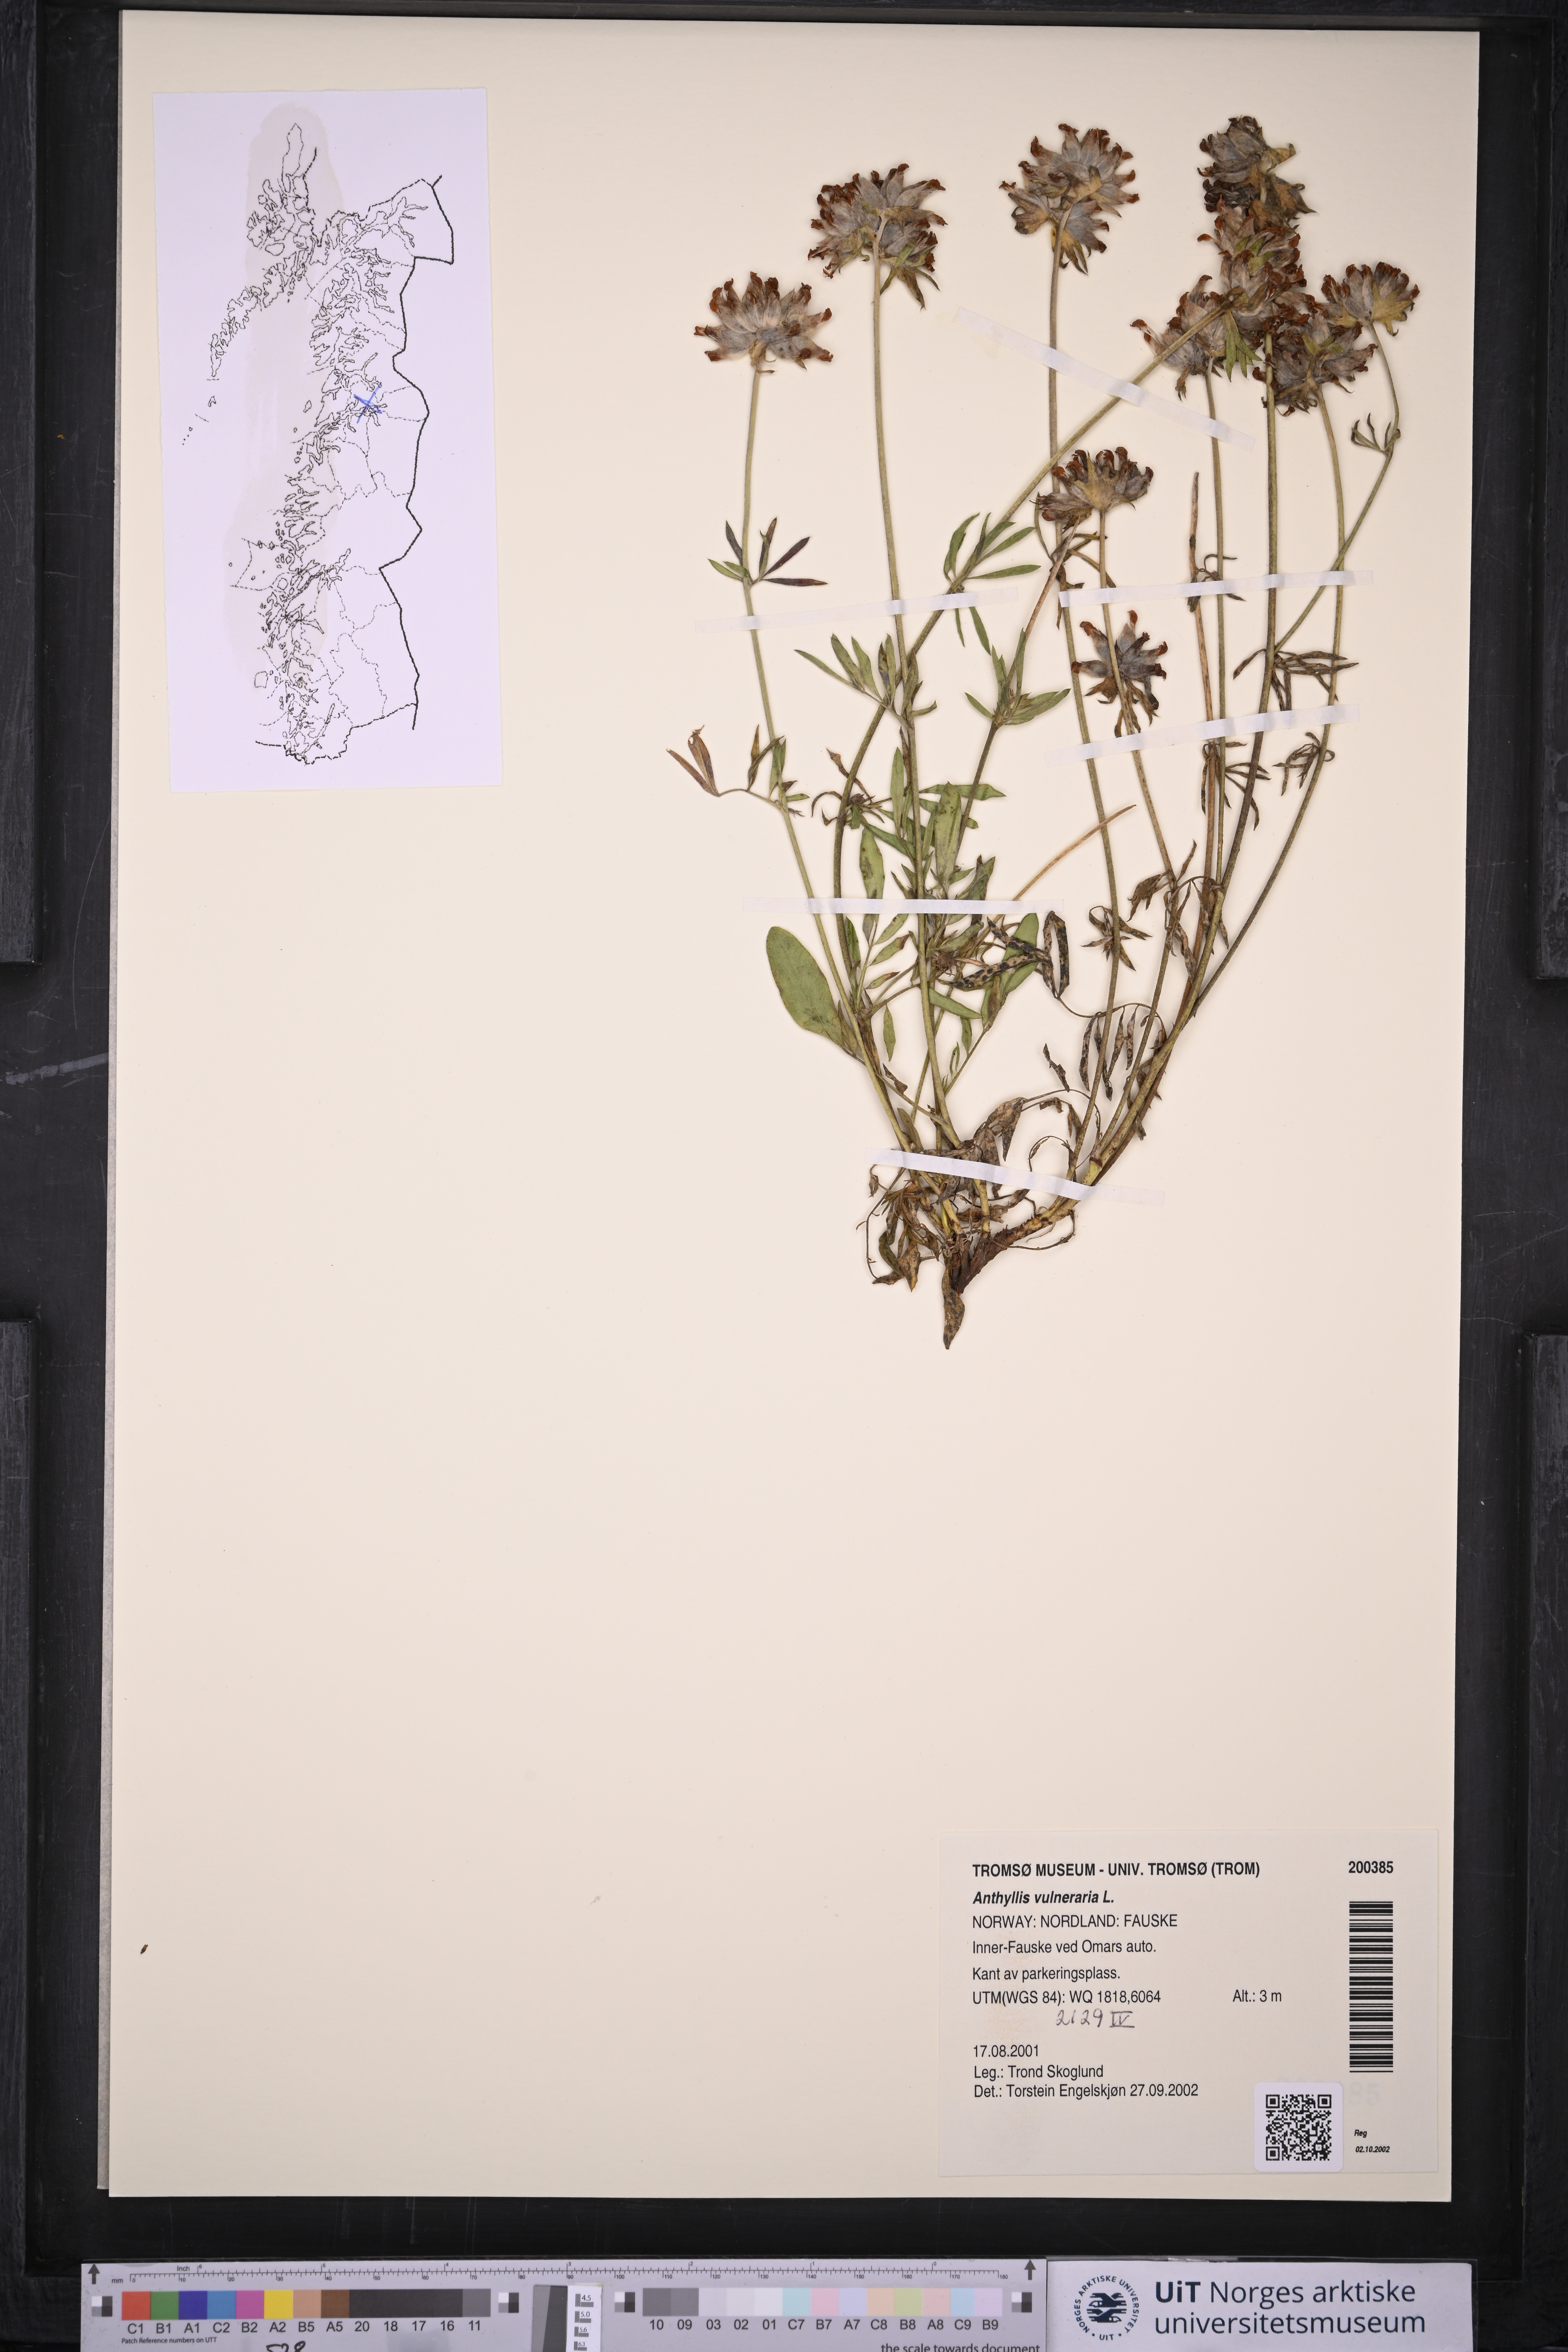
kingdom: Plantae
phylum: Tracheophyta
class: Magnoliopsida
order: Fabales
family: Fabaceae
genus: Anthyllis
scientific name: Anthyllis vulneraria
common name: Kidney vetch
